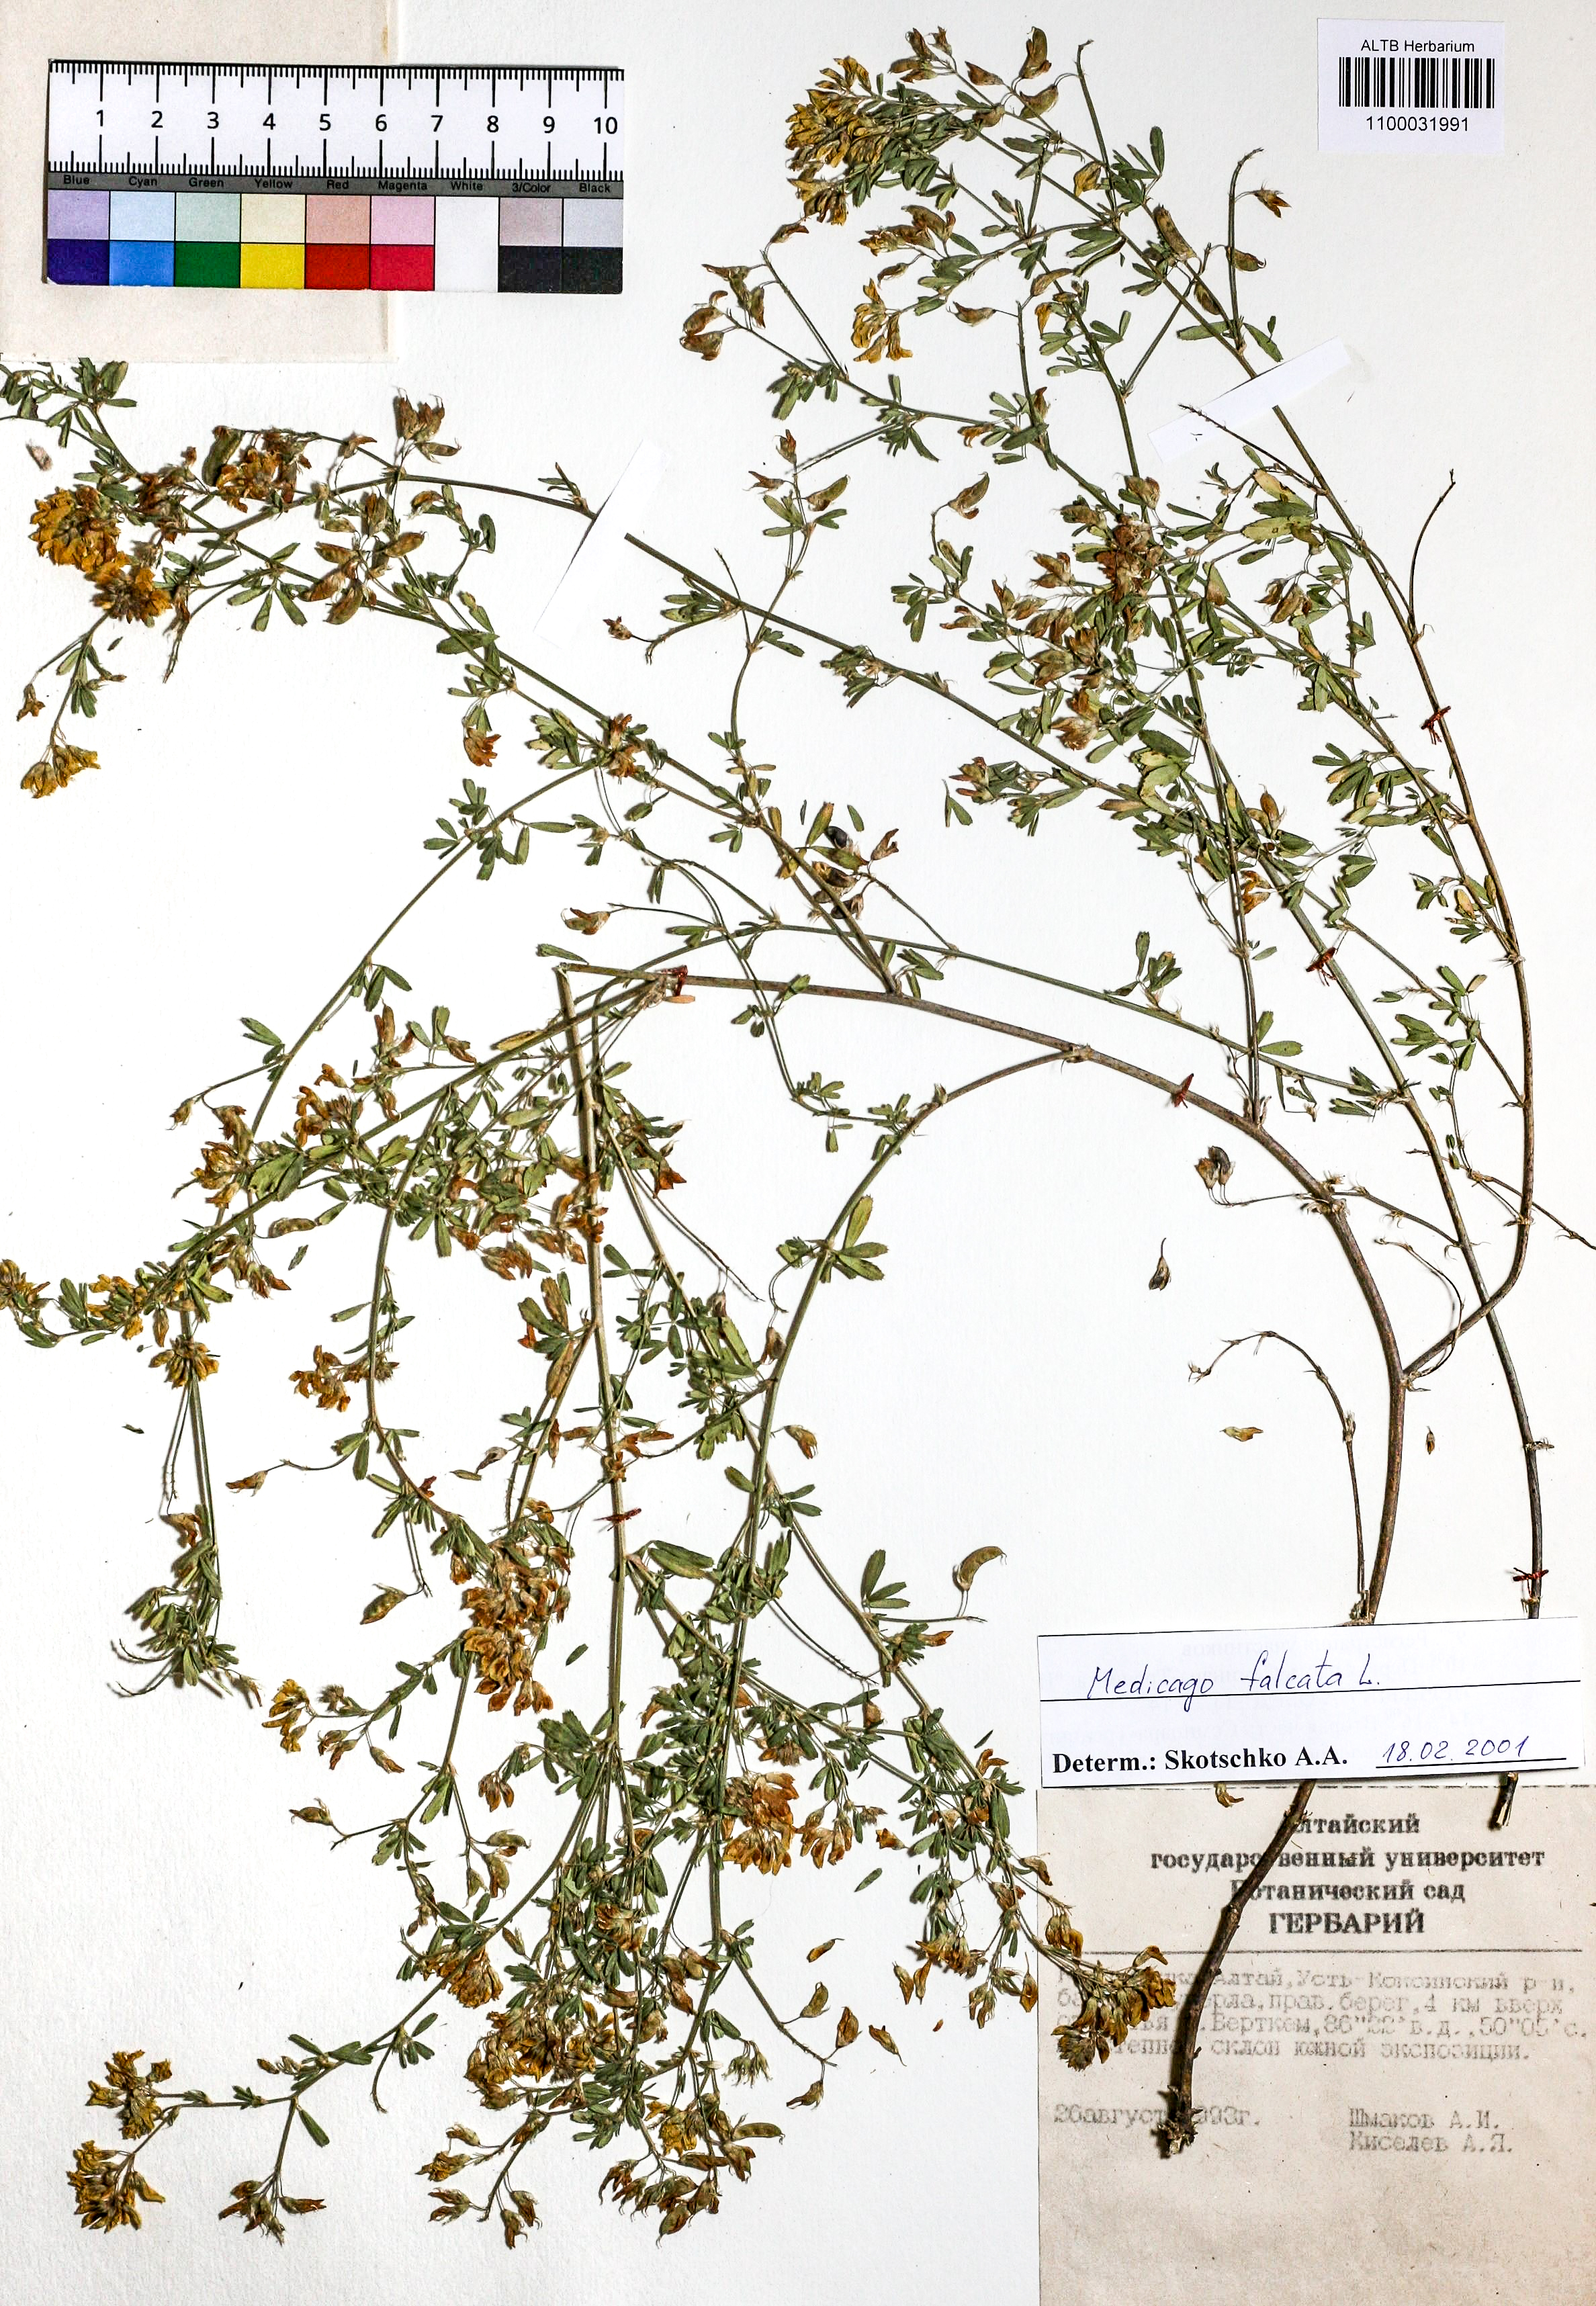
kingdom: Plantae
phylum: Tracheophyta
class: Magnoliopsida
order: Fabales
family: Fabaceae
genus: Medicago
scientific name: Medicago falcata
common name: Sickle medick
